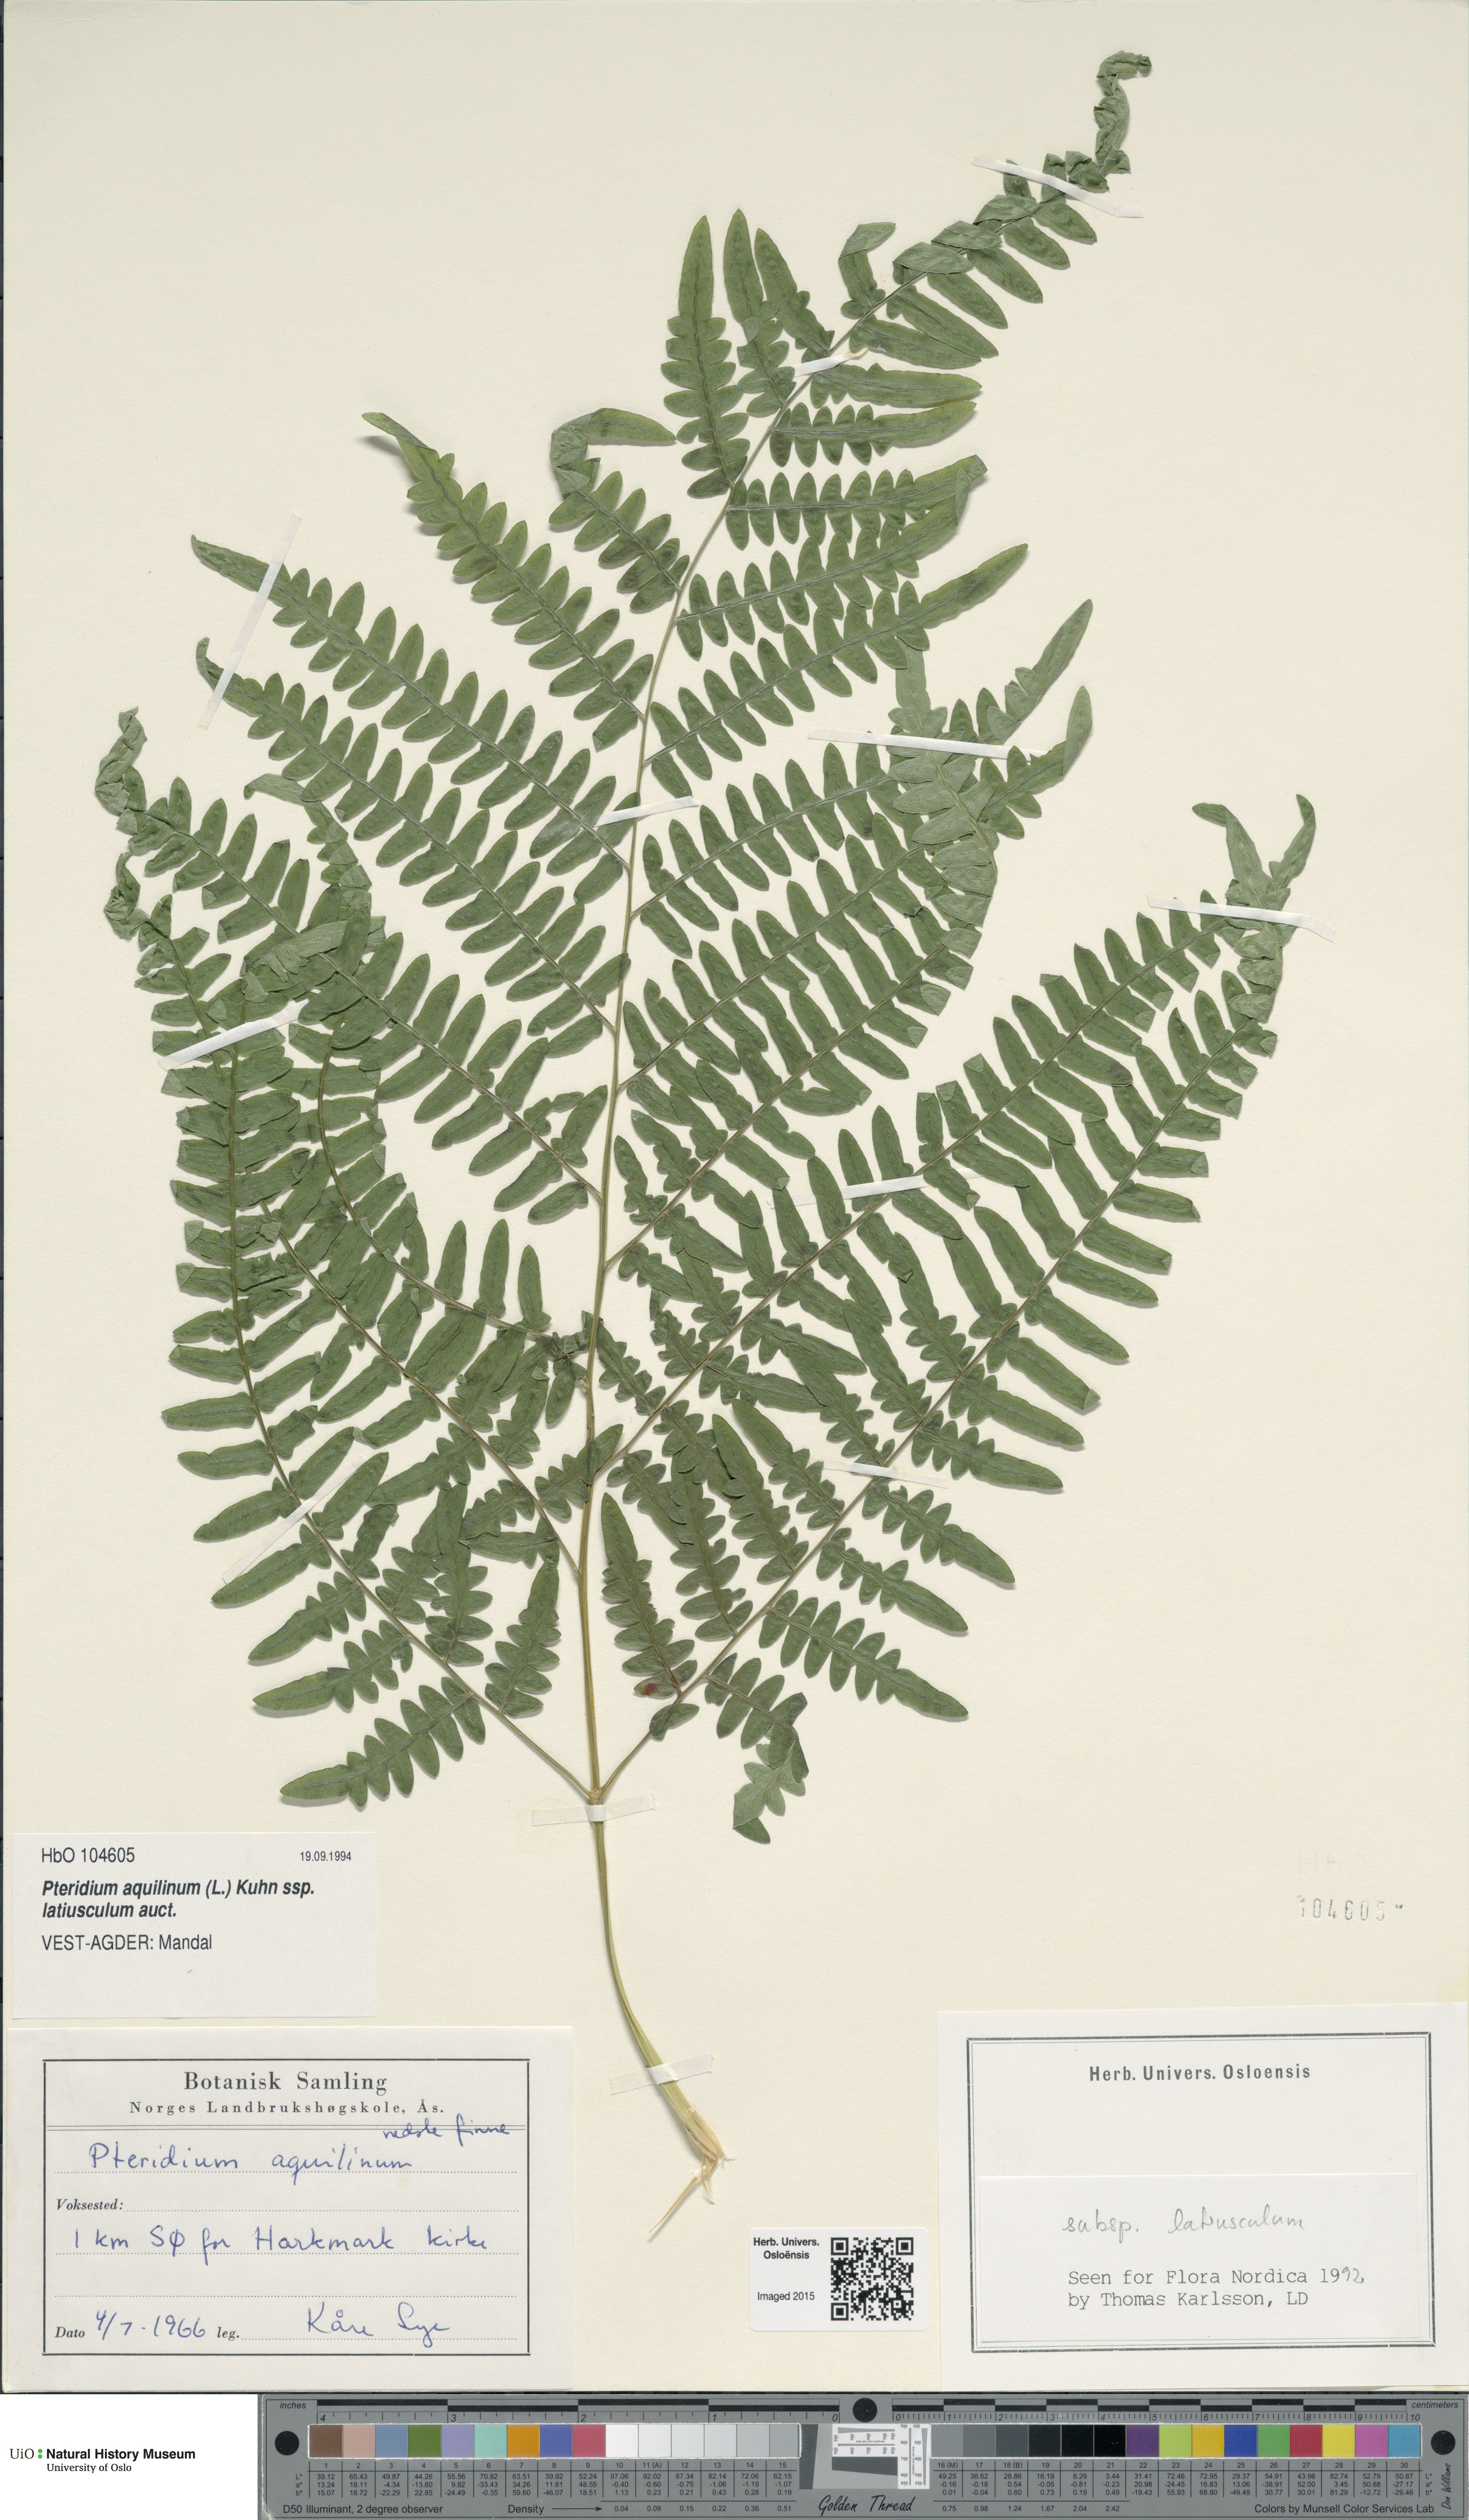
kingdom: Plantae
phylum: Tracheophyta
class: Polypodiopsida
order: Polypodiales
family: Dennstaedtiaceae
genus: Pteridium
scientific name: Pteridium aquilinum
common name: Bracken
